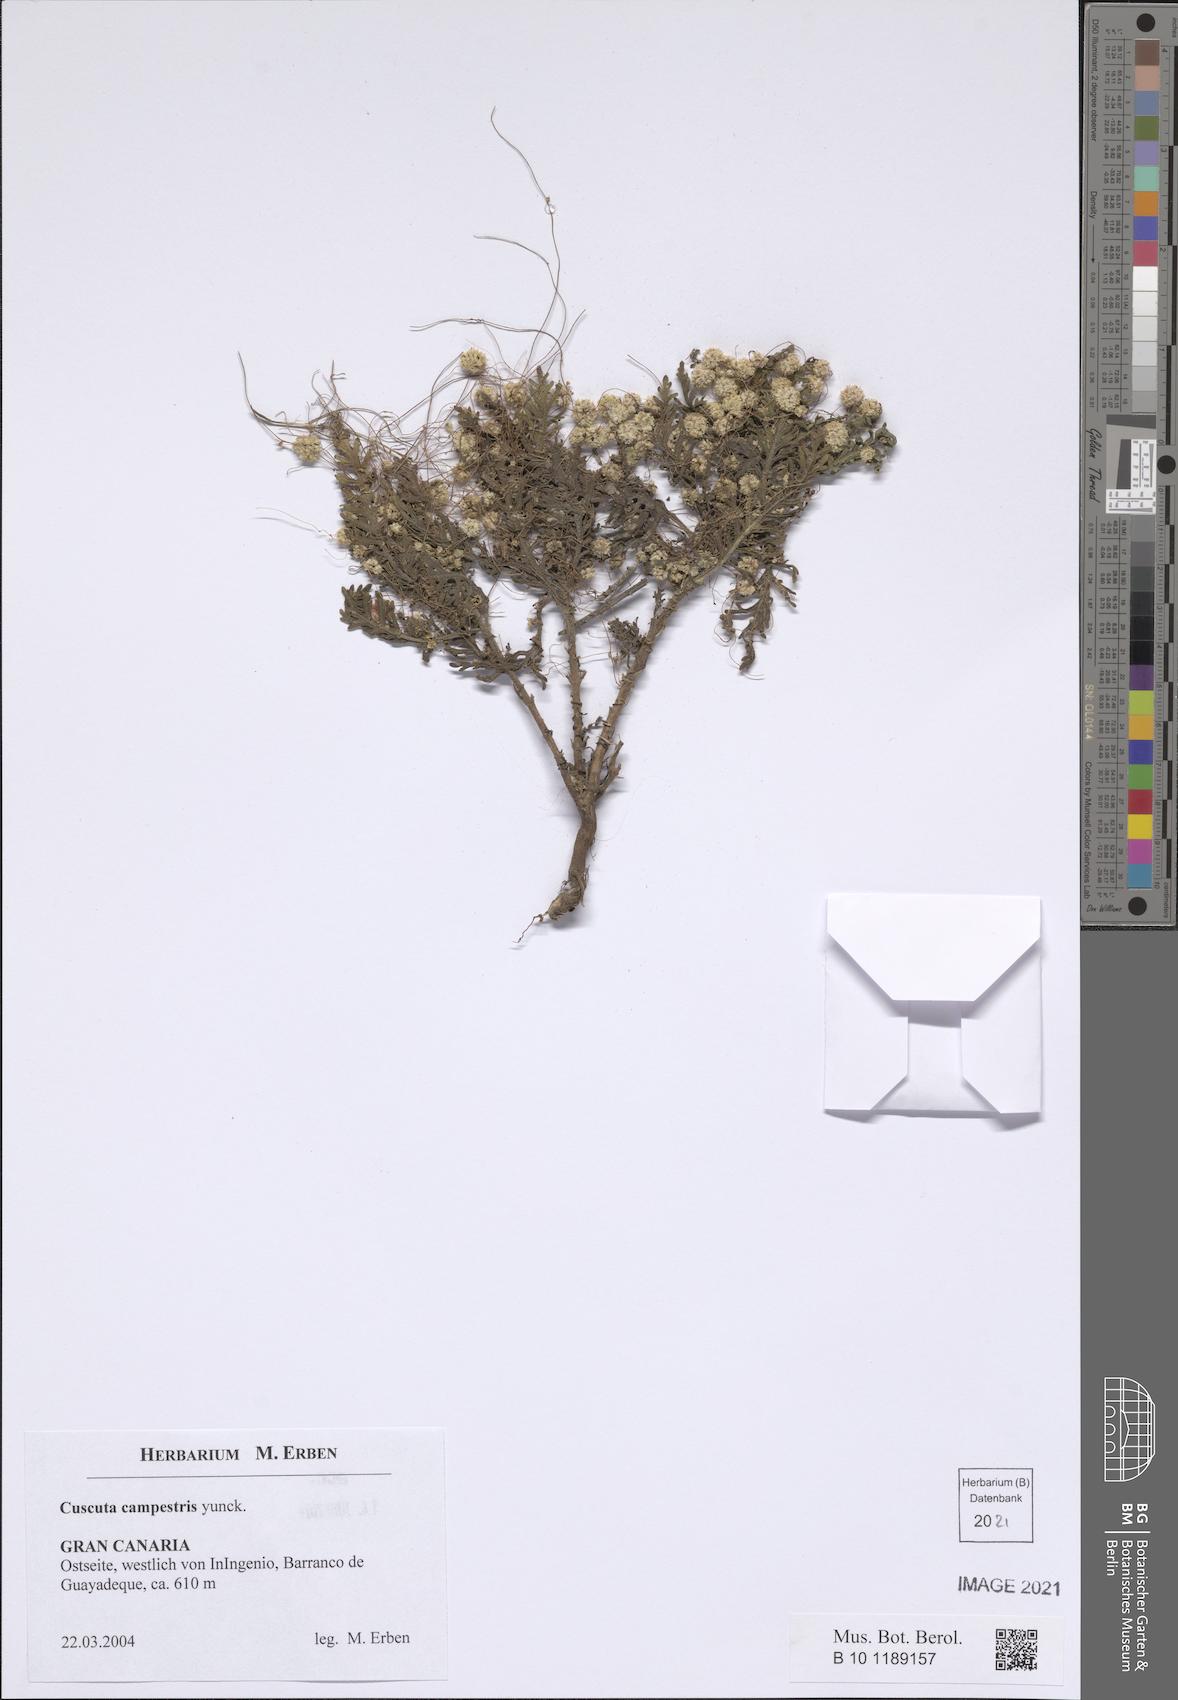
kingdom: Plantae
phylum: Tracheophyta
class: Magnoliopsida
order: Solanales
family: Convolvulaceae
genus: Cuscuta
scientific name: Cuscuta campestris
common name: Yellow dodder
